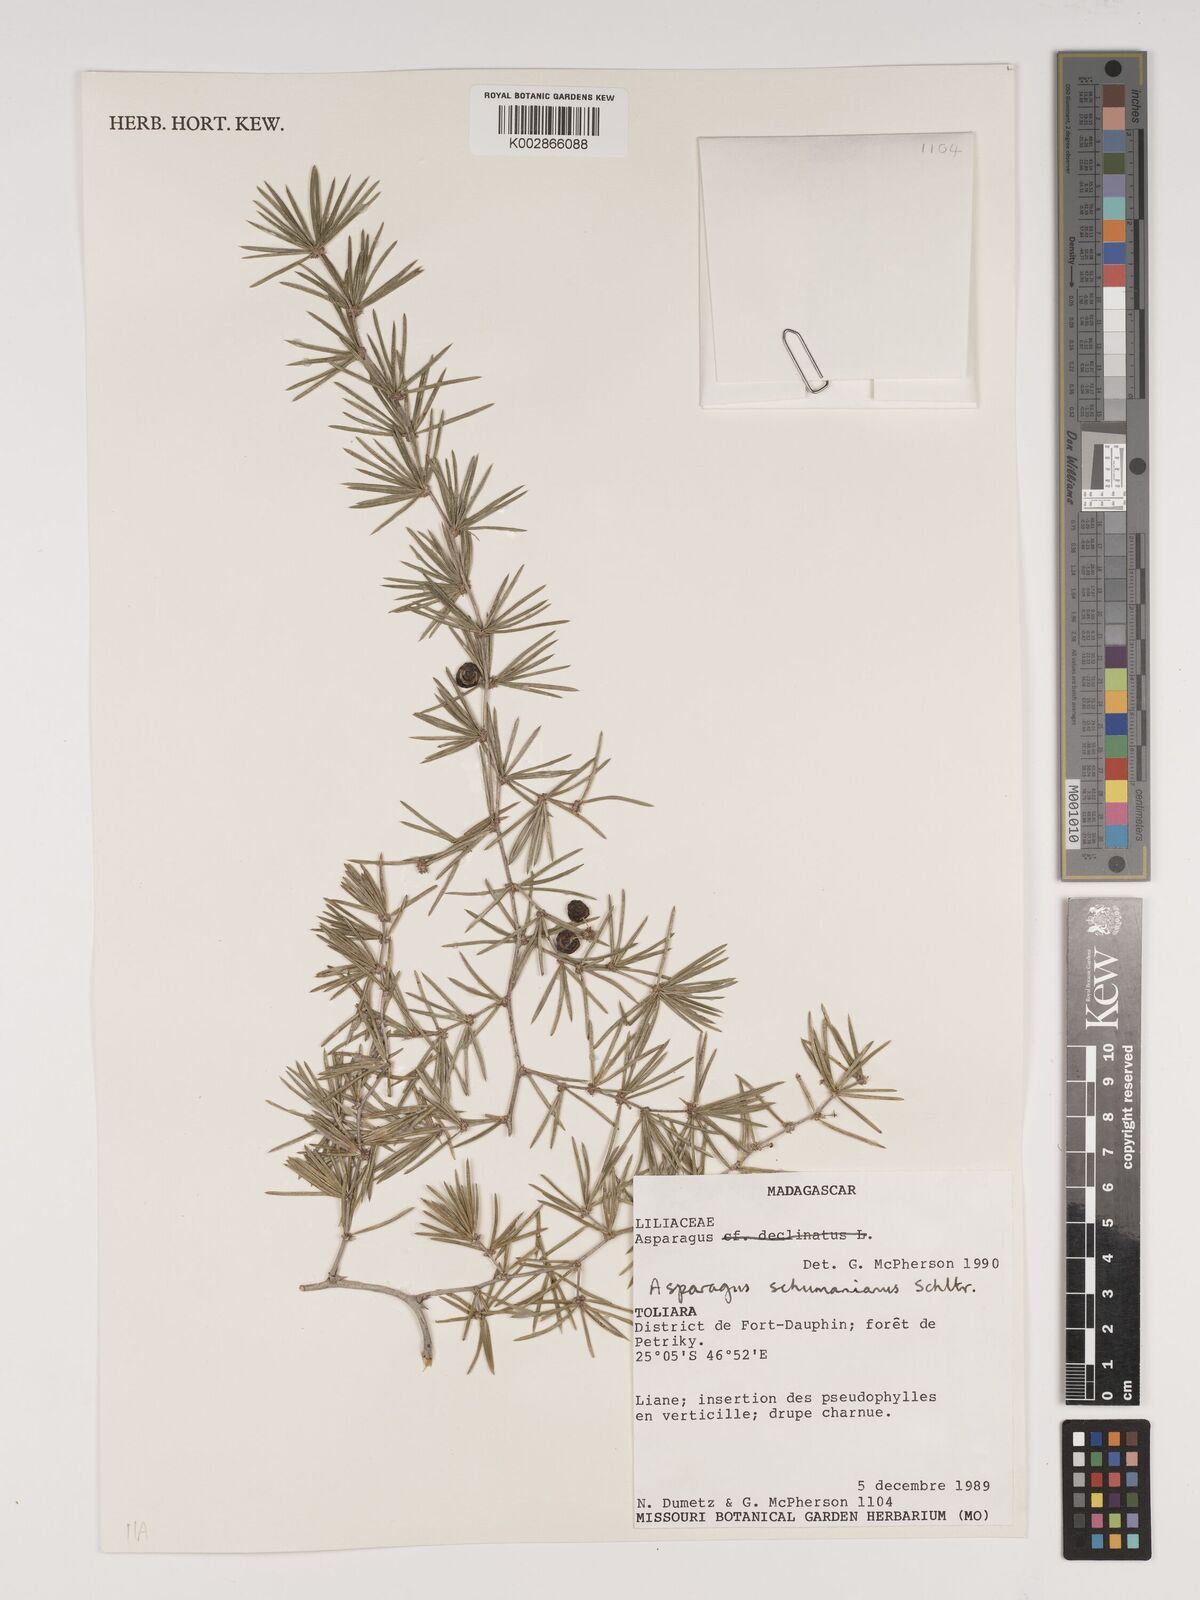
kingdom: Plantae
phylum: Tracheophyta
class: Liliopsida
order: Asparagales
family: Asparagaceae
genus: Asparagus
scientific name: Asparagus schumanianus
